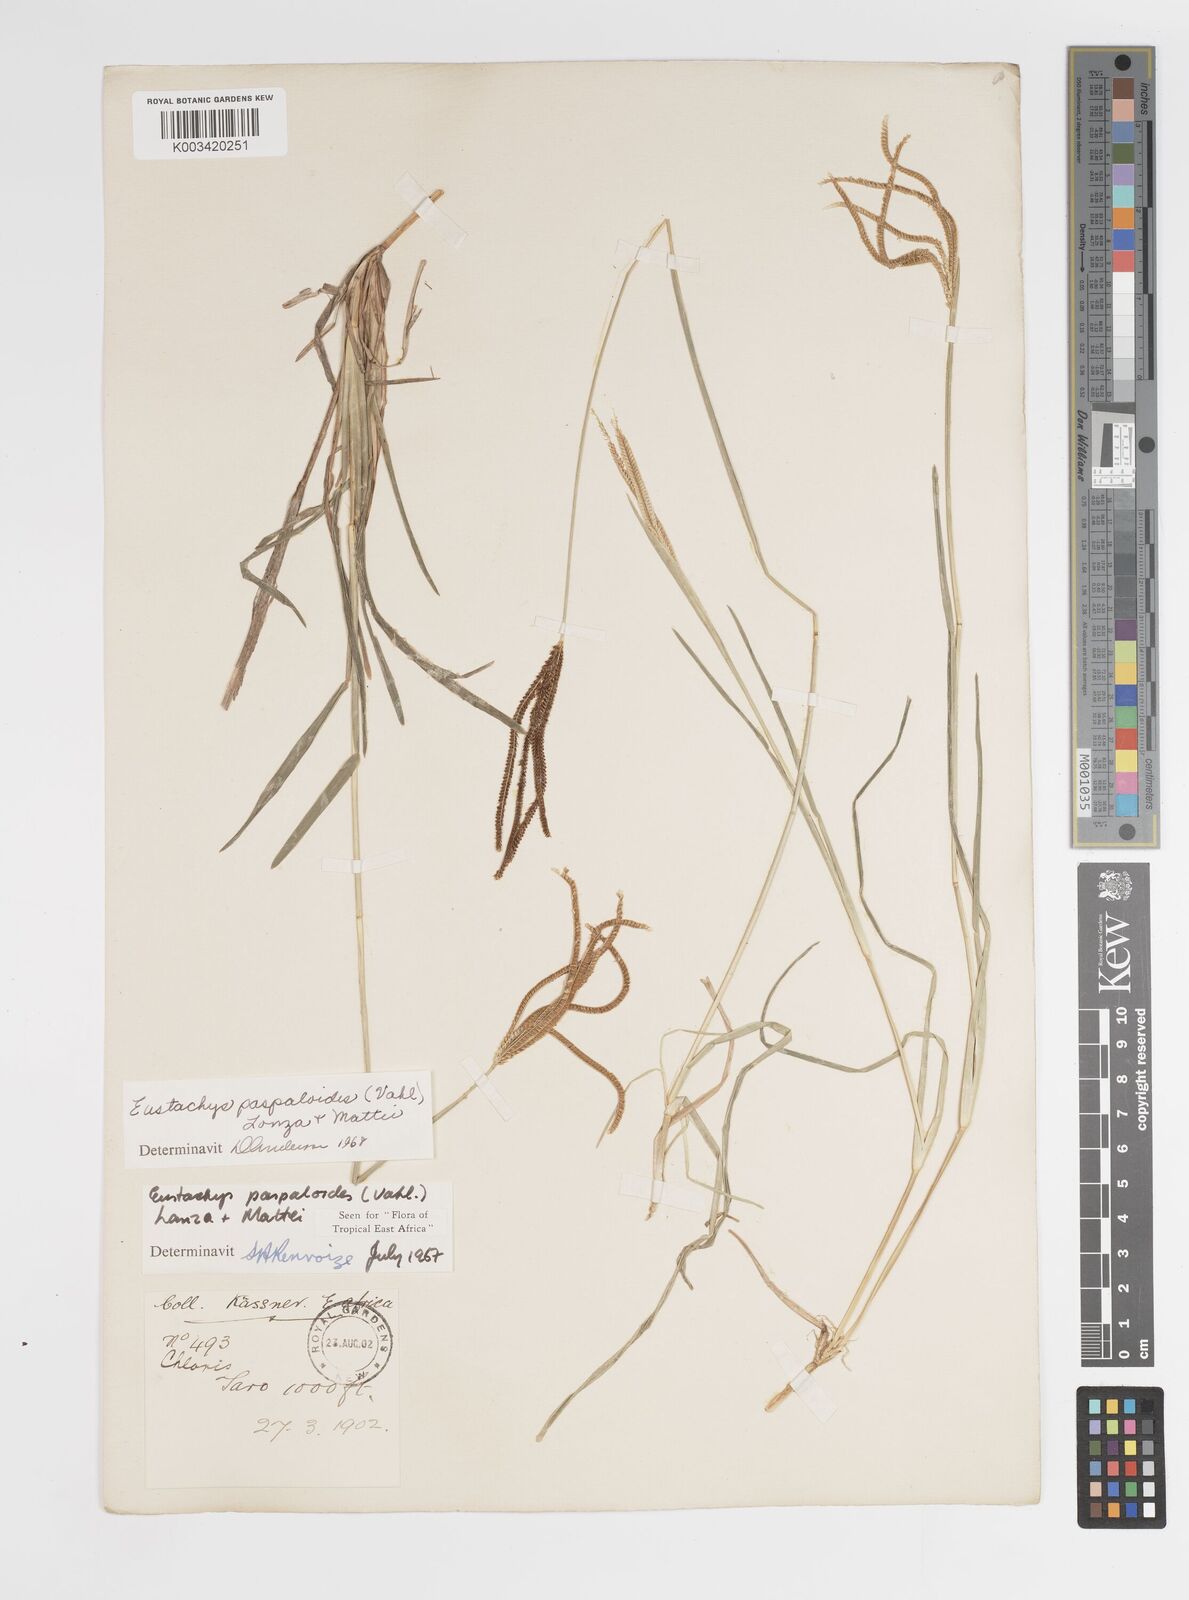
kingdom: Plantae
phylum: Tracheophyta
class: Liliopsida
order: Poales
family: Poaceae
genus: Eustachys
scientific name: Eustachys paspaloides
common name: Caribbean fingergrass
